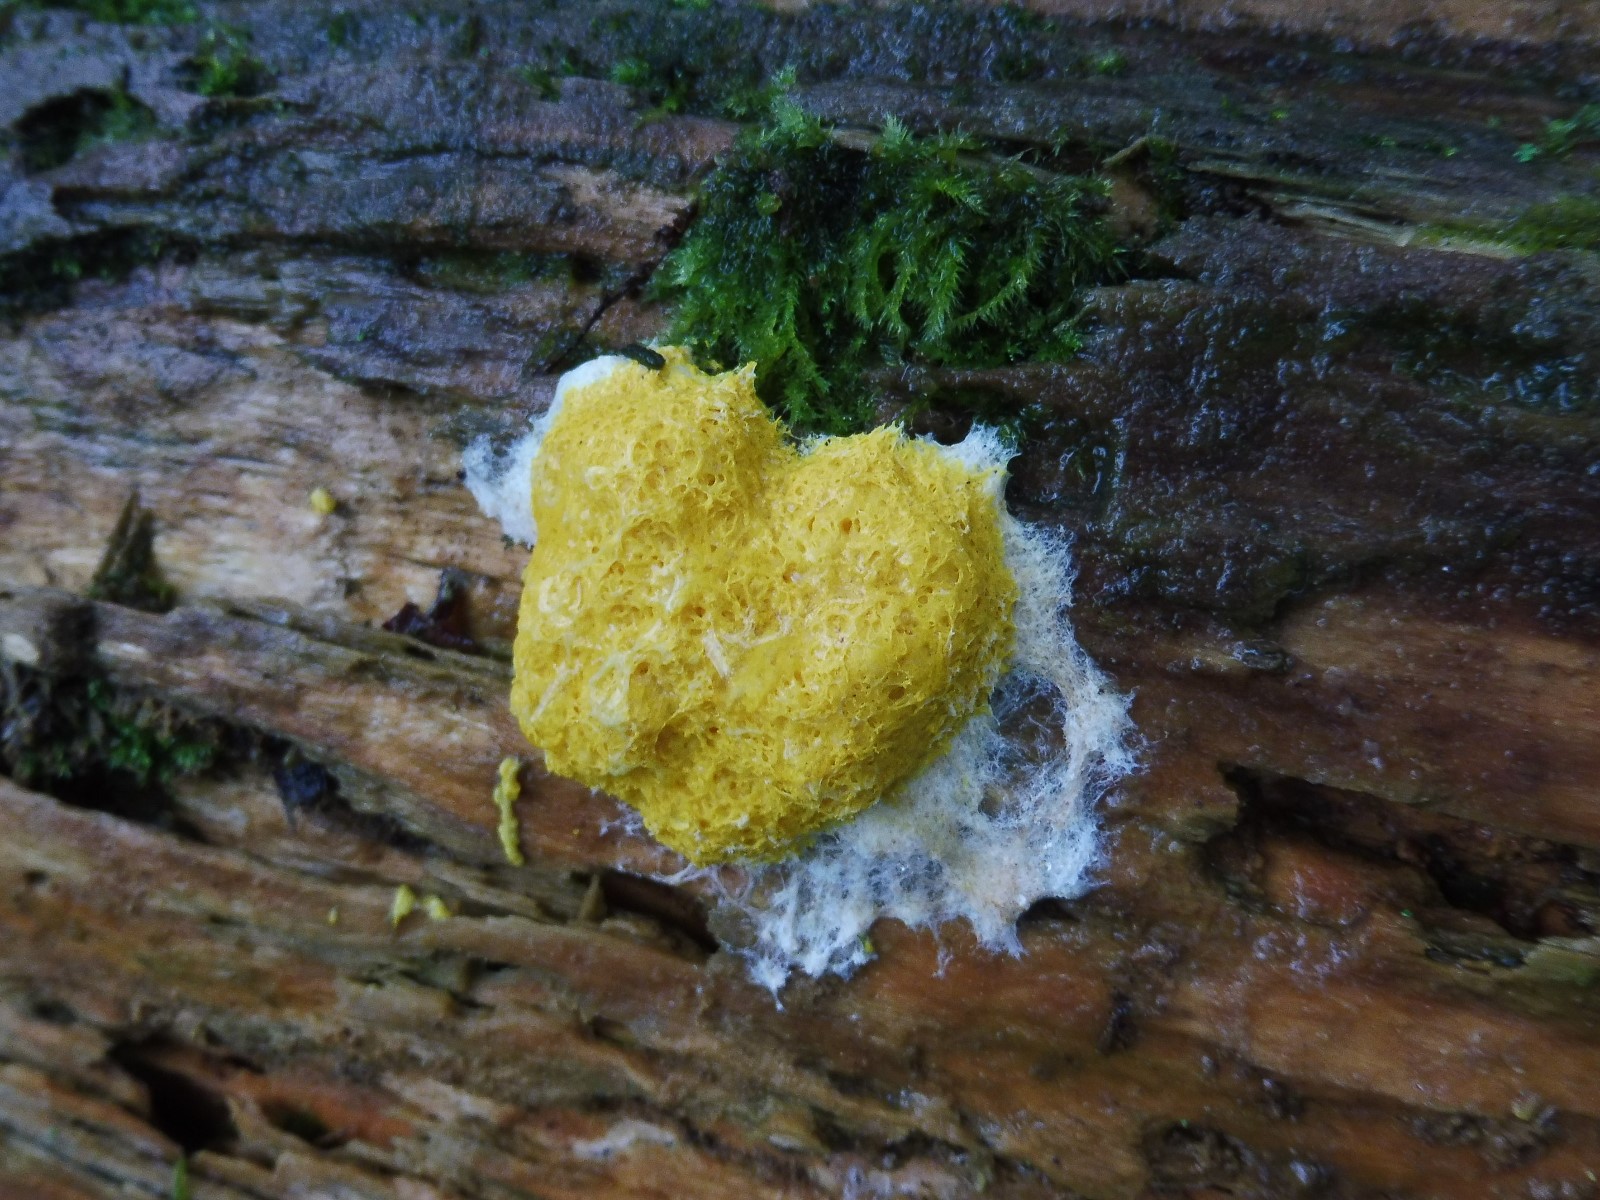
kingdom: Protozoa
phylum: Mycetozoa
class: Myxomycetes
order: Physarales
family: Physaraceae
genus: Fuligo
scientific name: Fuligo septica
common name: gul troldsmør
